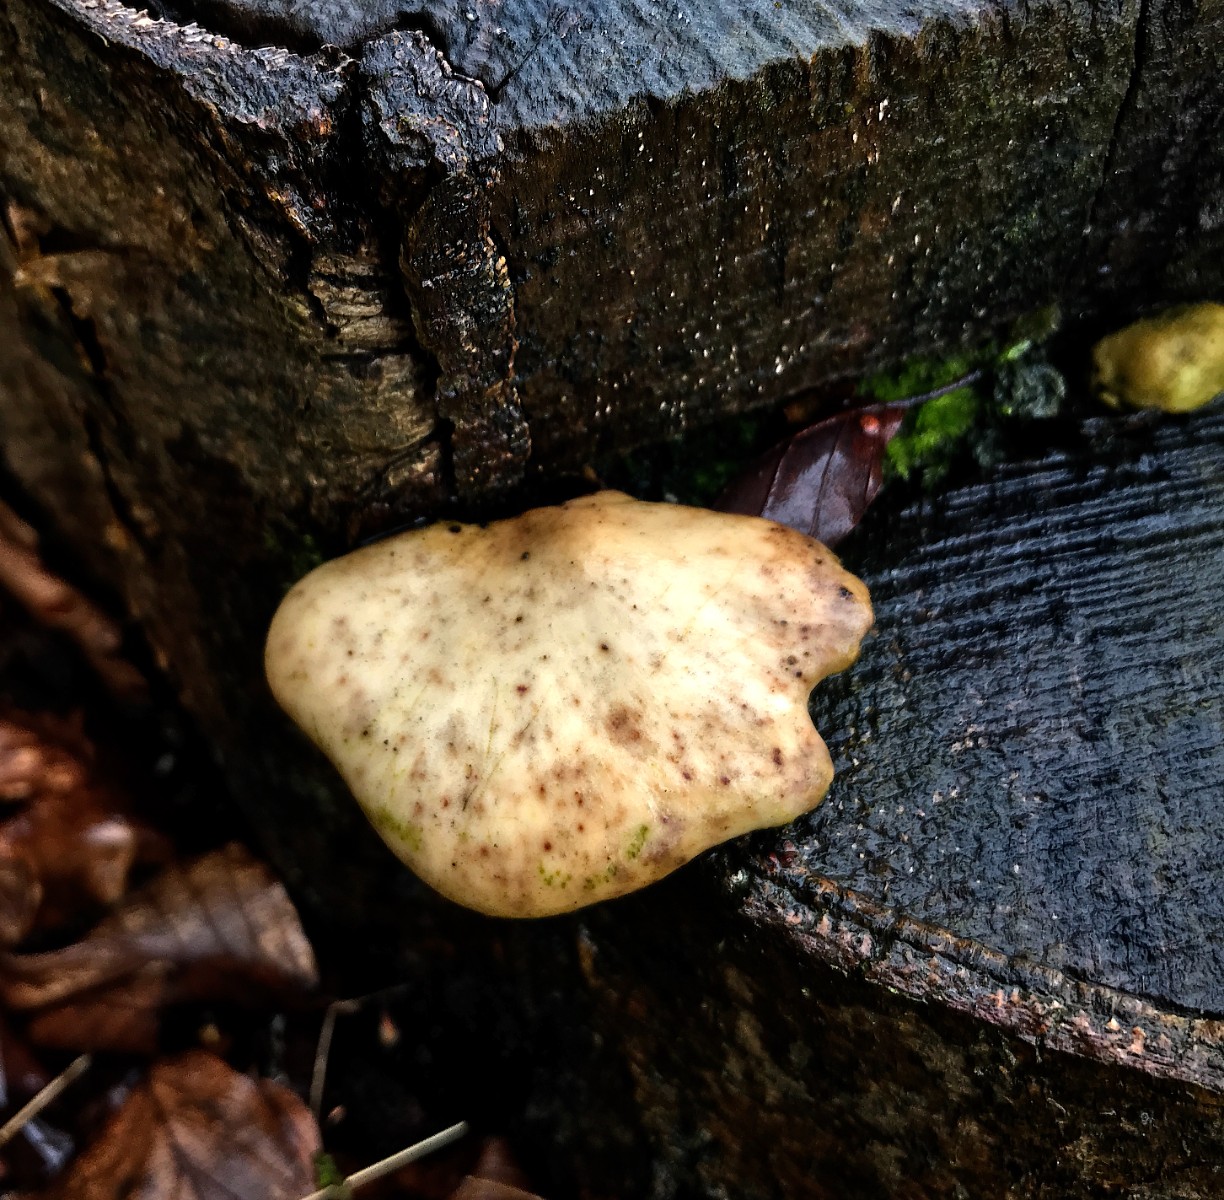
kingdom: Fungi
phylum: Basidiomycota
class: Agaricomycetes
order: Polyporales
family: Polyporaceae
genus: Cerioporus
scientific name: Cerioporus varius
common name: foranderlig stilkporesvamp
